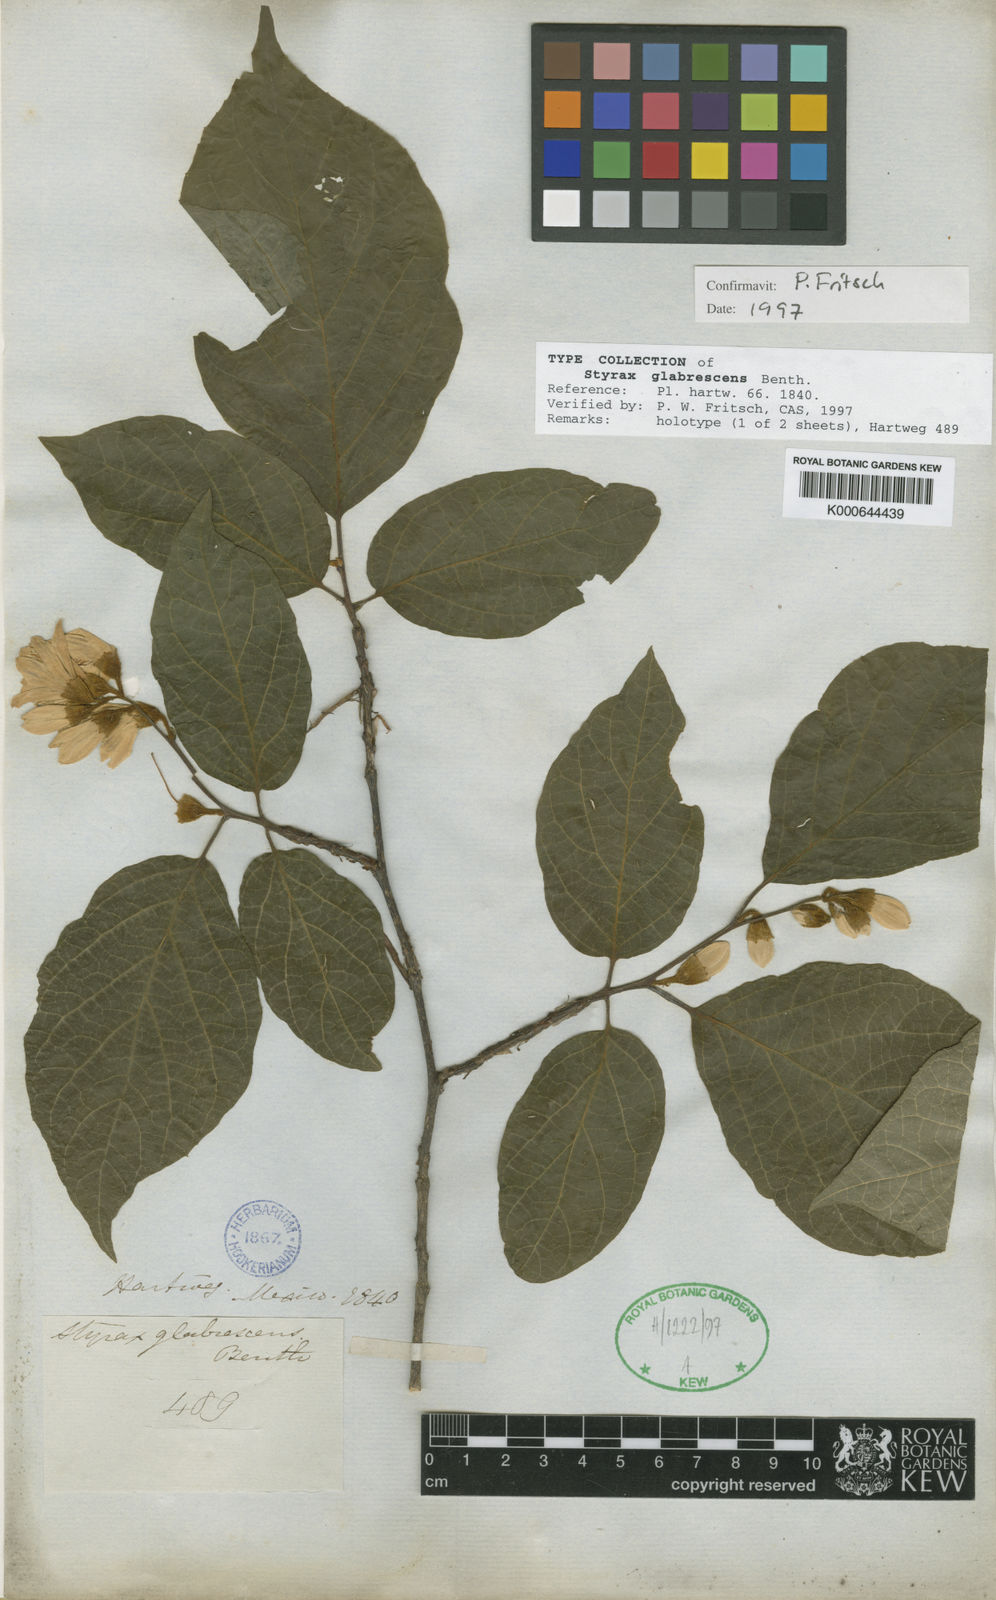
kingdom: Plantae
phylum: Tracheophyta
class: Magnoliopsida
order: Ericales
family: Styracaceae
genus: Styrax
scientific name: Styrax glabrescens
